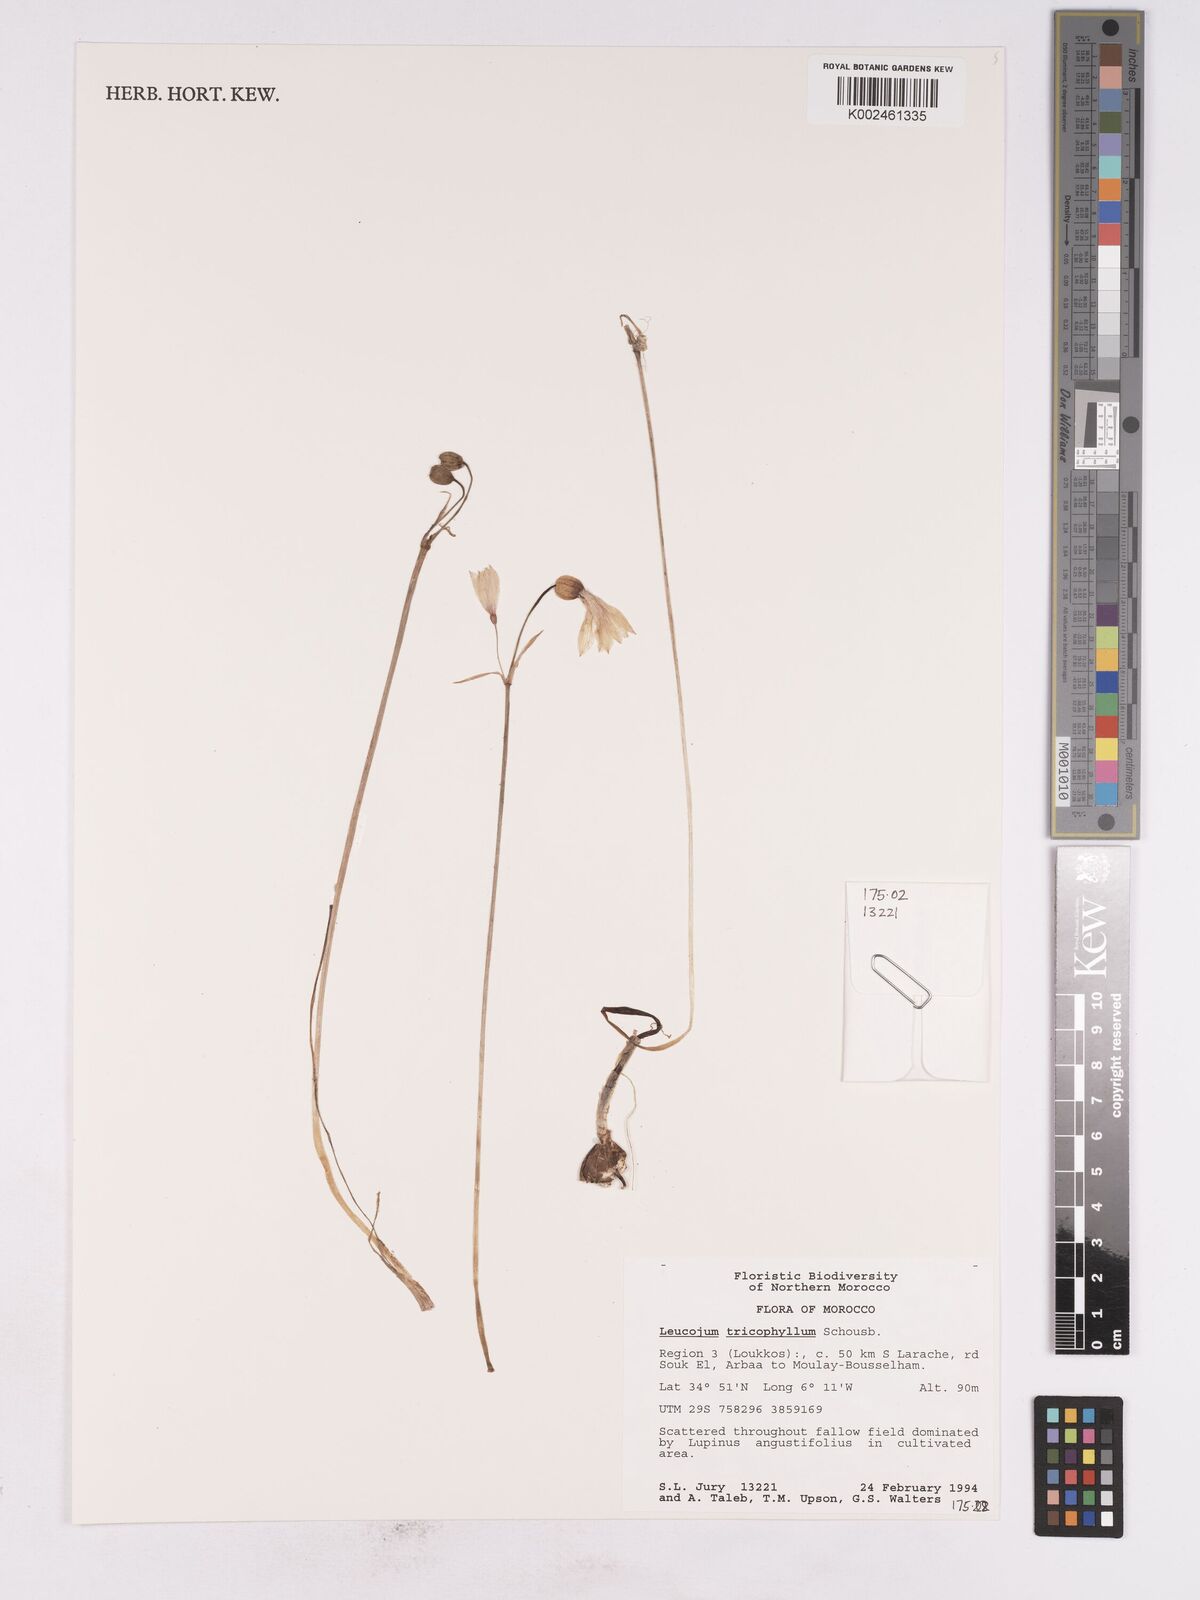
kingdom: Plantae
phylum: Tracheophyta
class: Liliopsida
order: Asparagales
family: Amaryllidaceae
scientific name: Amaryllidaceae
